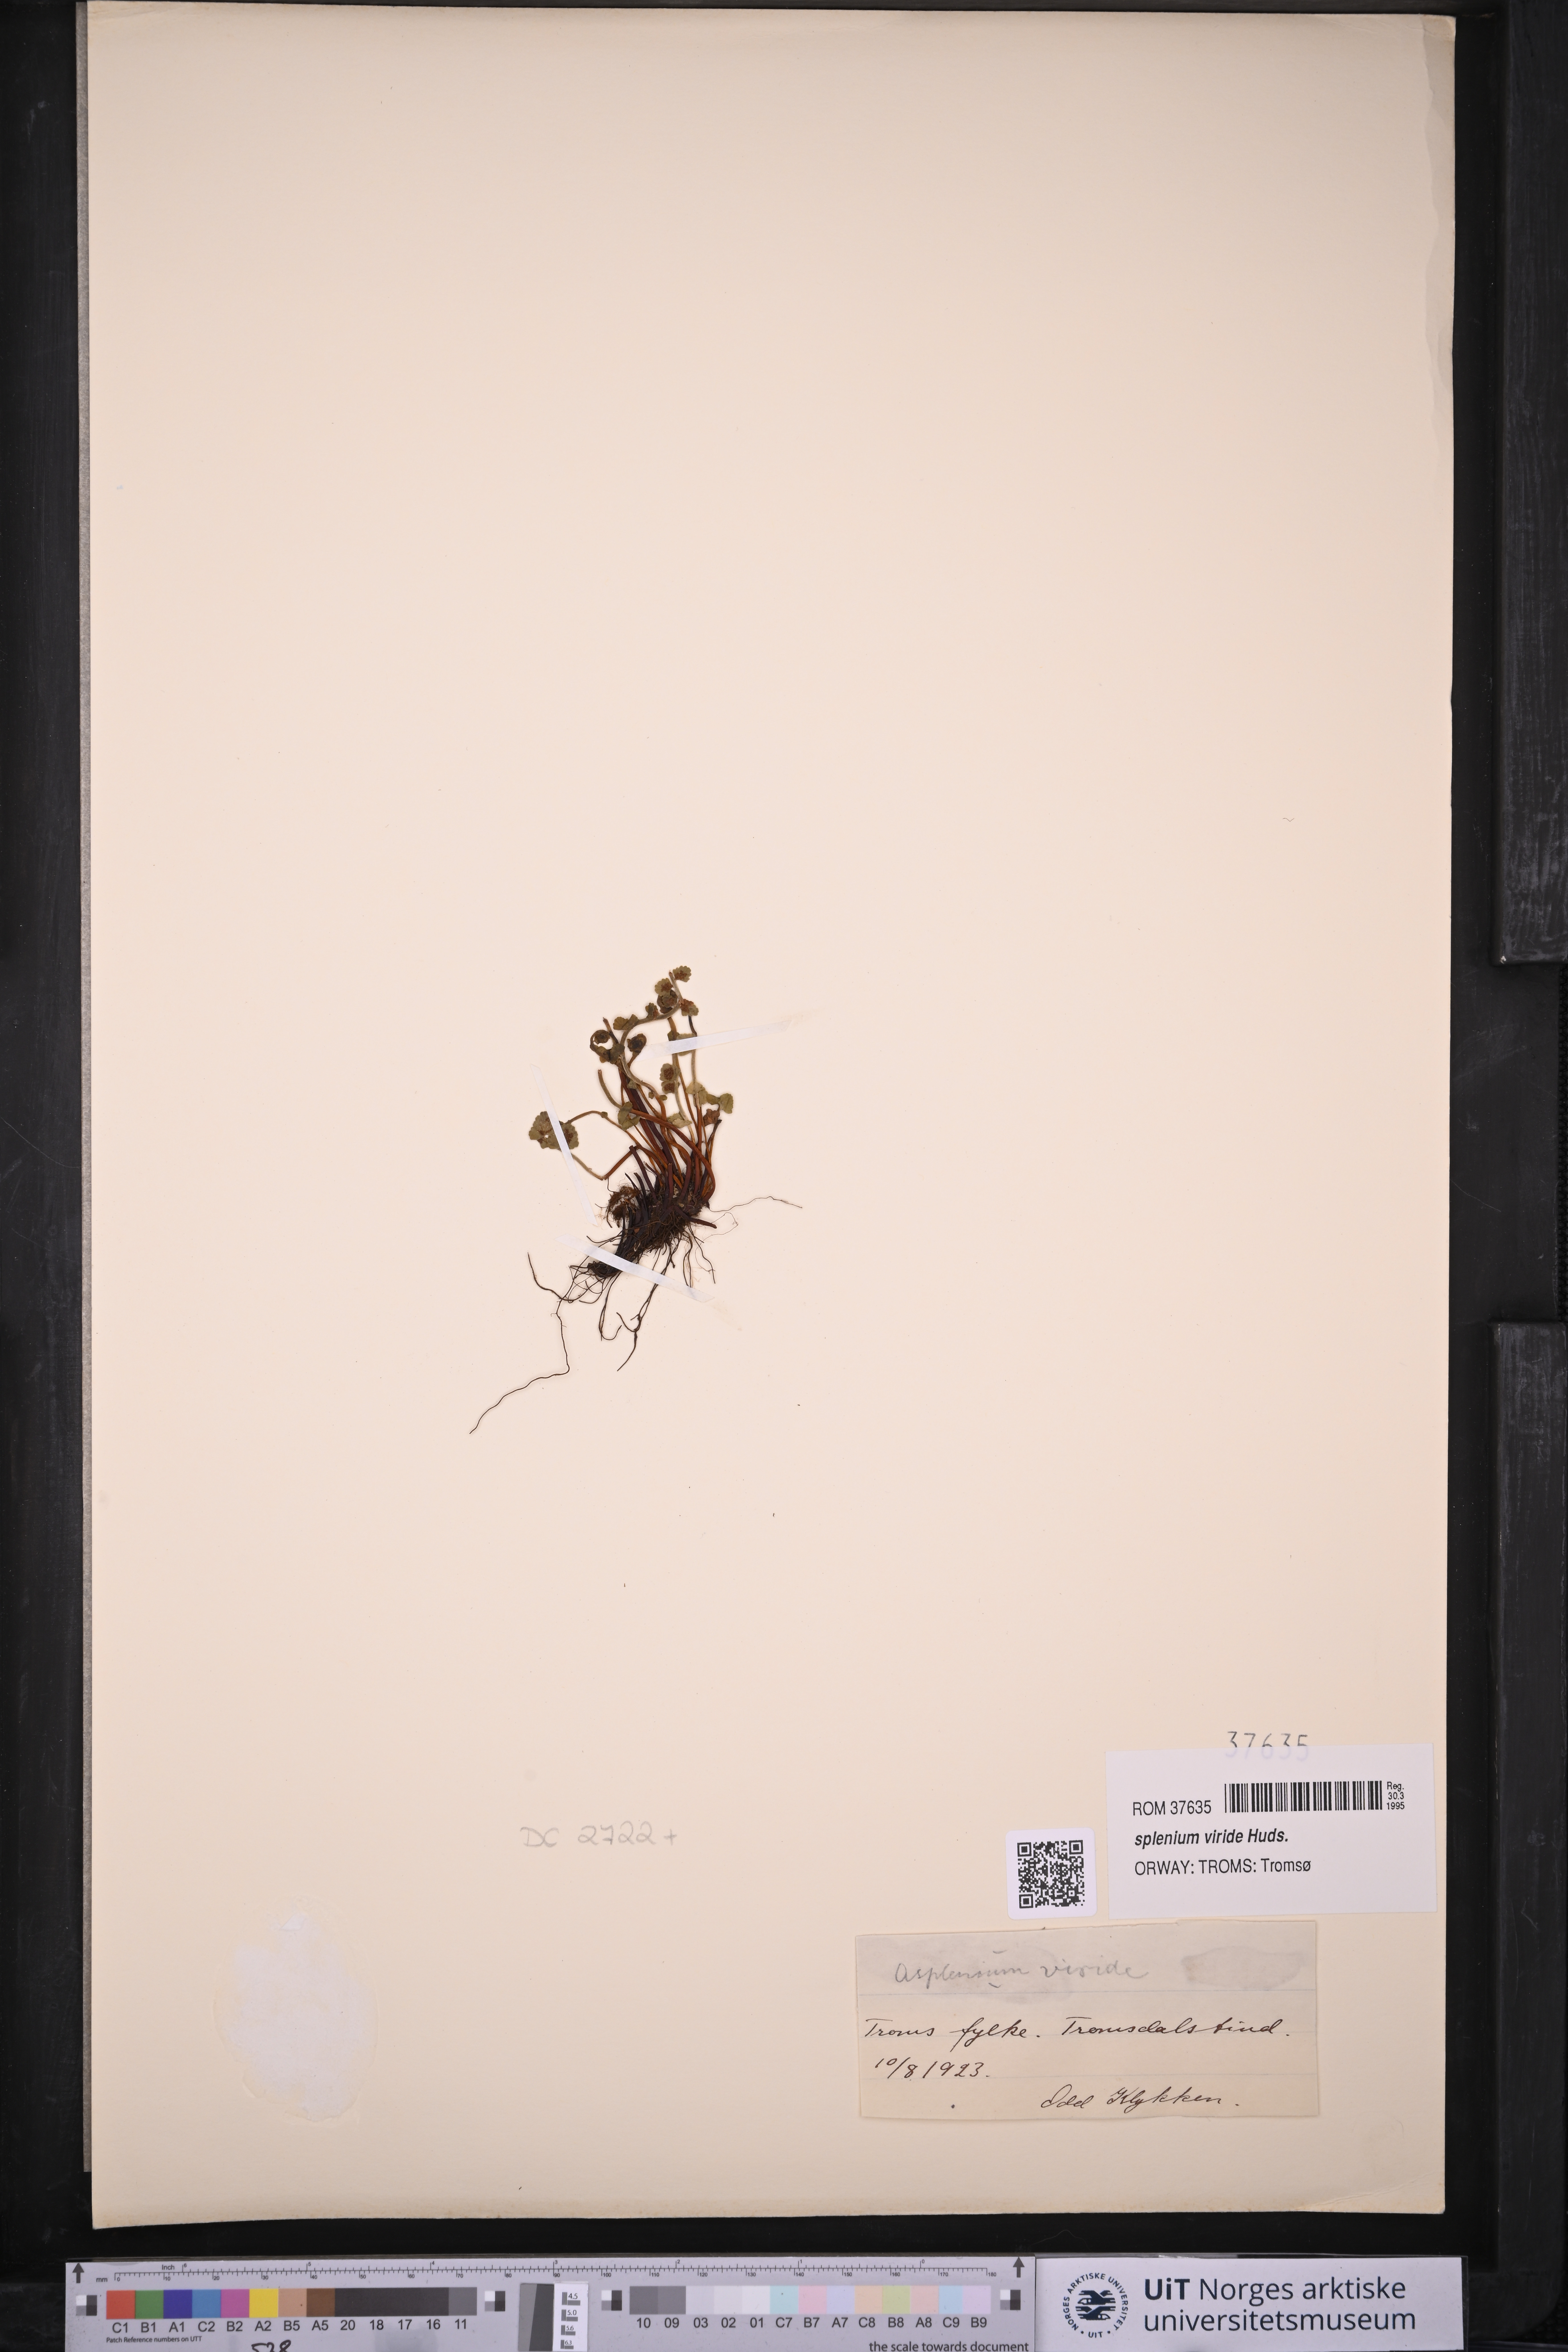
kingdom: Plantae
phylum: Tracheophyta
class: Polypodiopsida
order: Polypodiales
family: Aspleniaceae
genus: Asplenium
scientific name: Asplenium viride
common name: Green spleenwort
